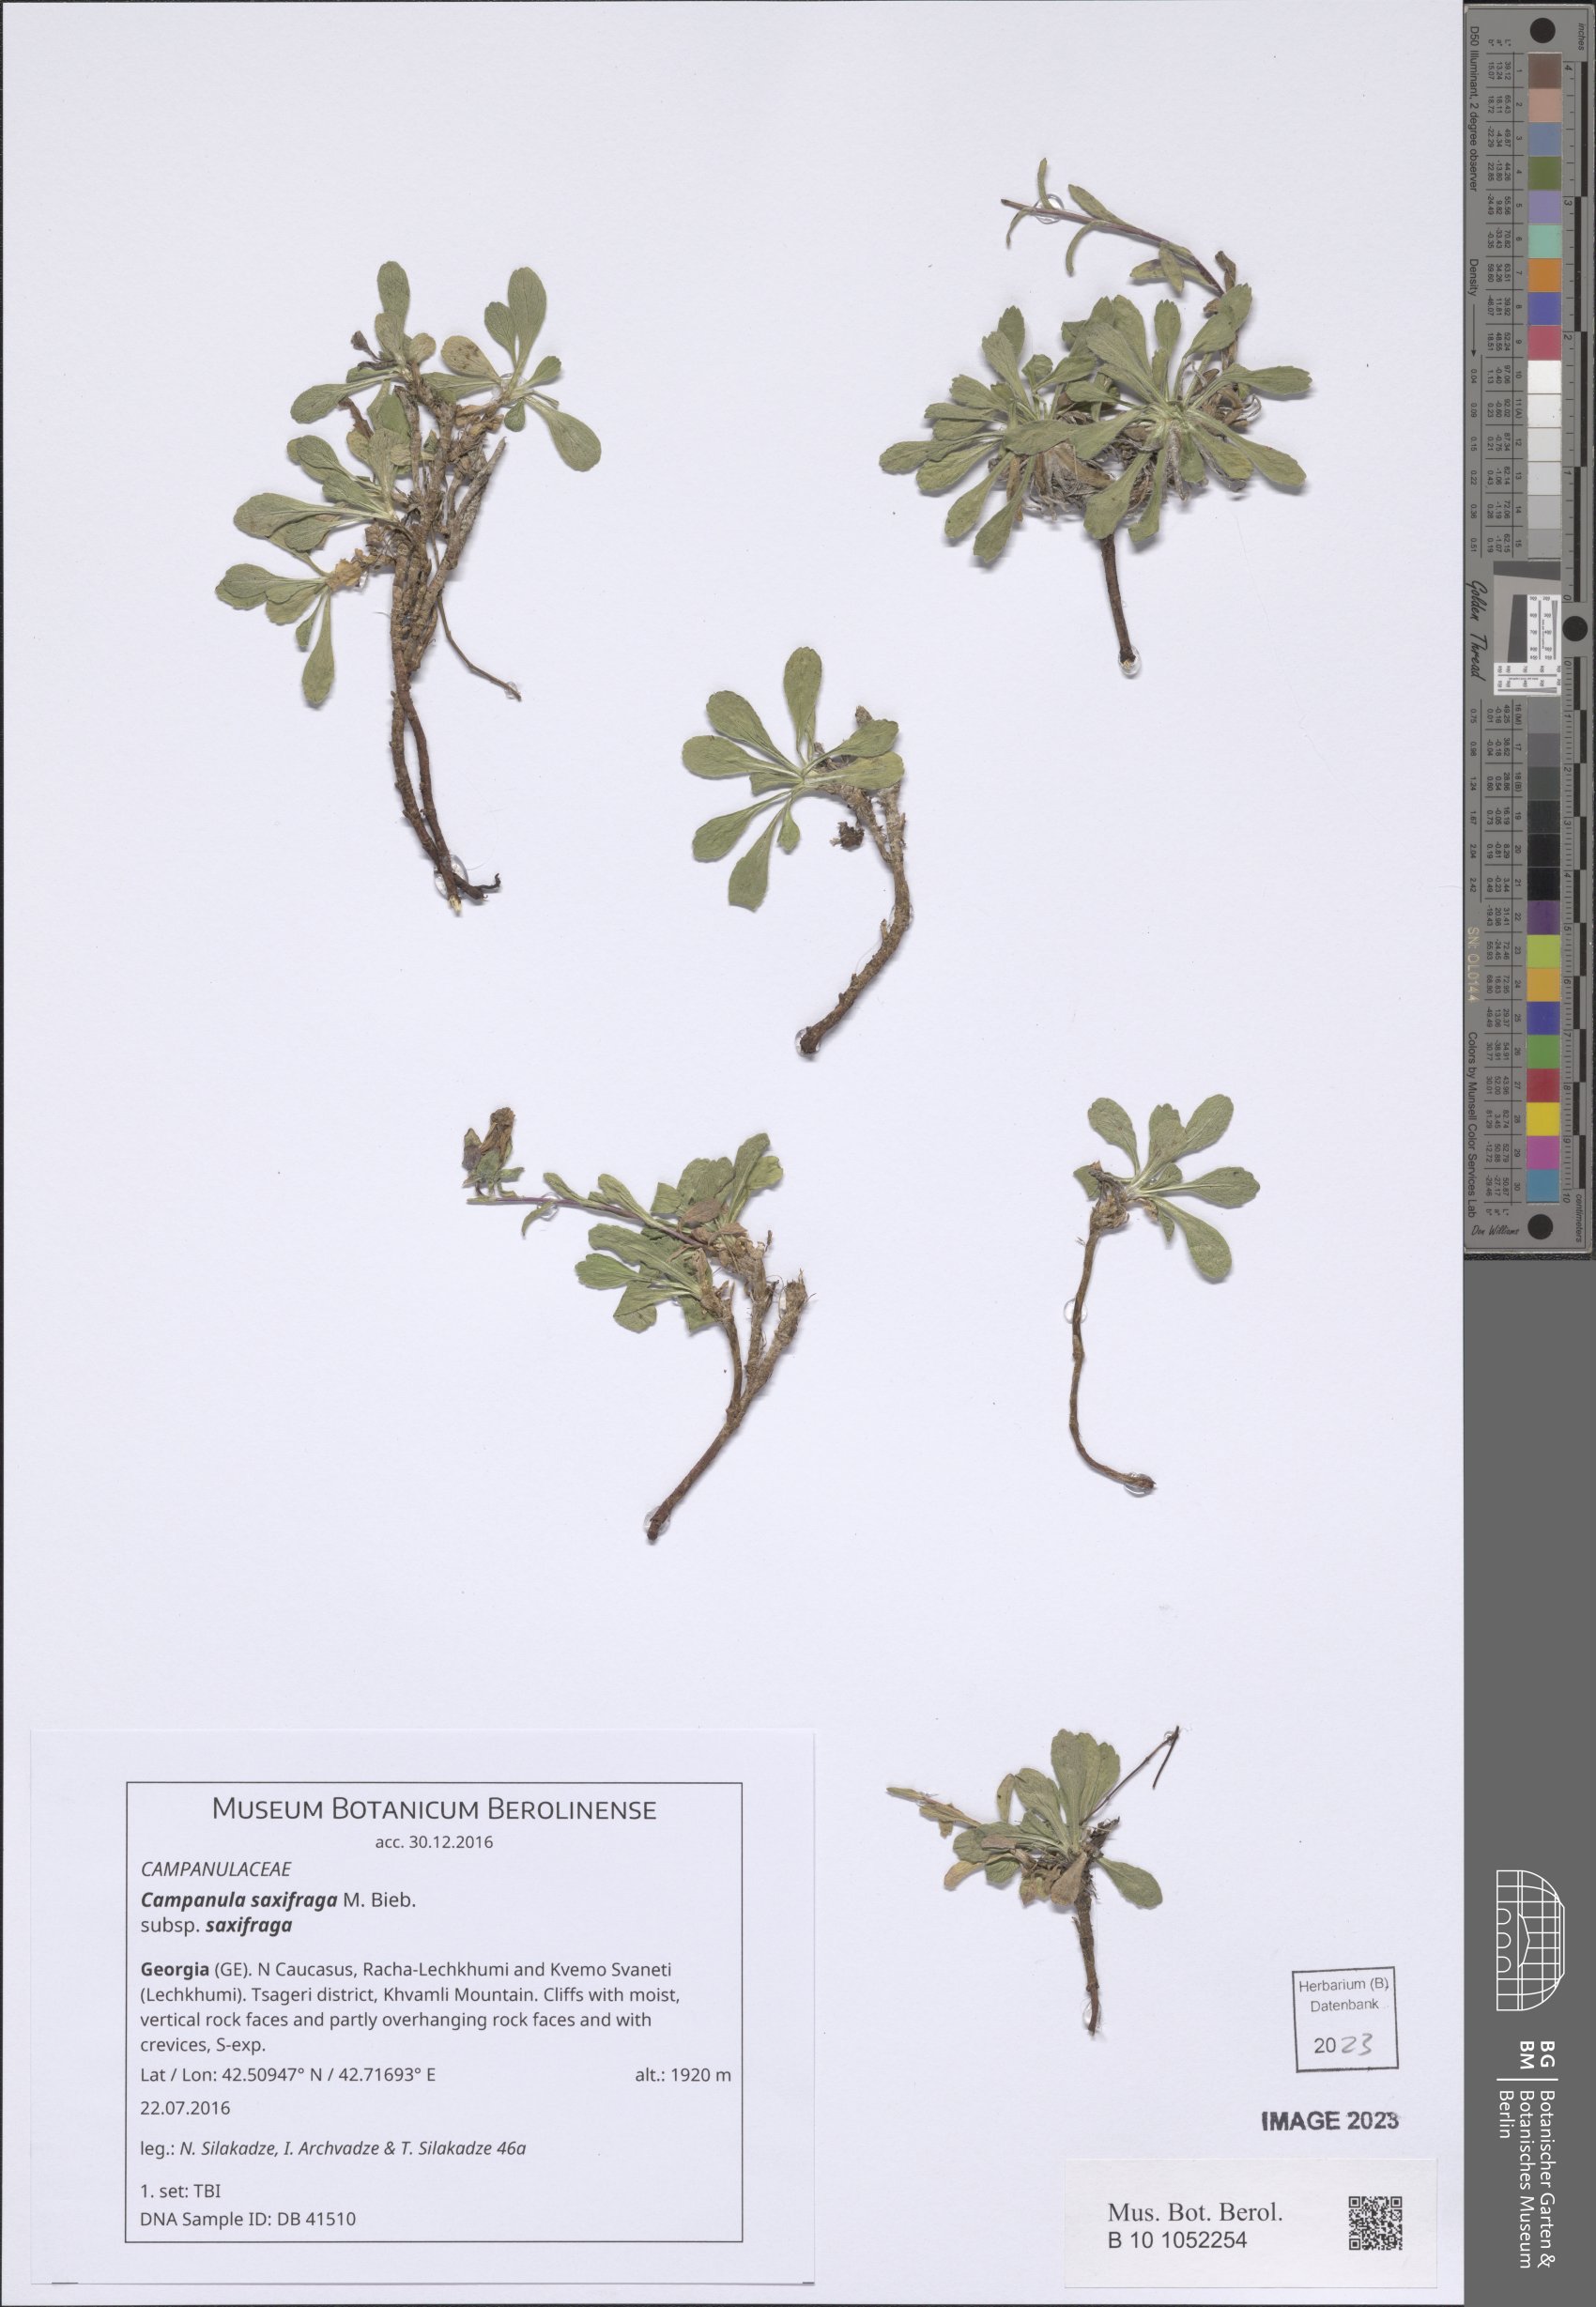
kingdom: Plantae
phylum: Tracheophyta
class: Magnoliopsida
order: Asterales
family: Campanulaceae
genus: Campanula
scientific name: Campanula saxifraga
